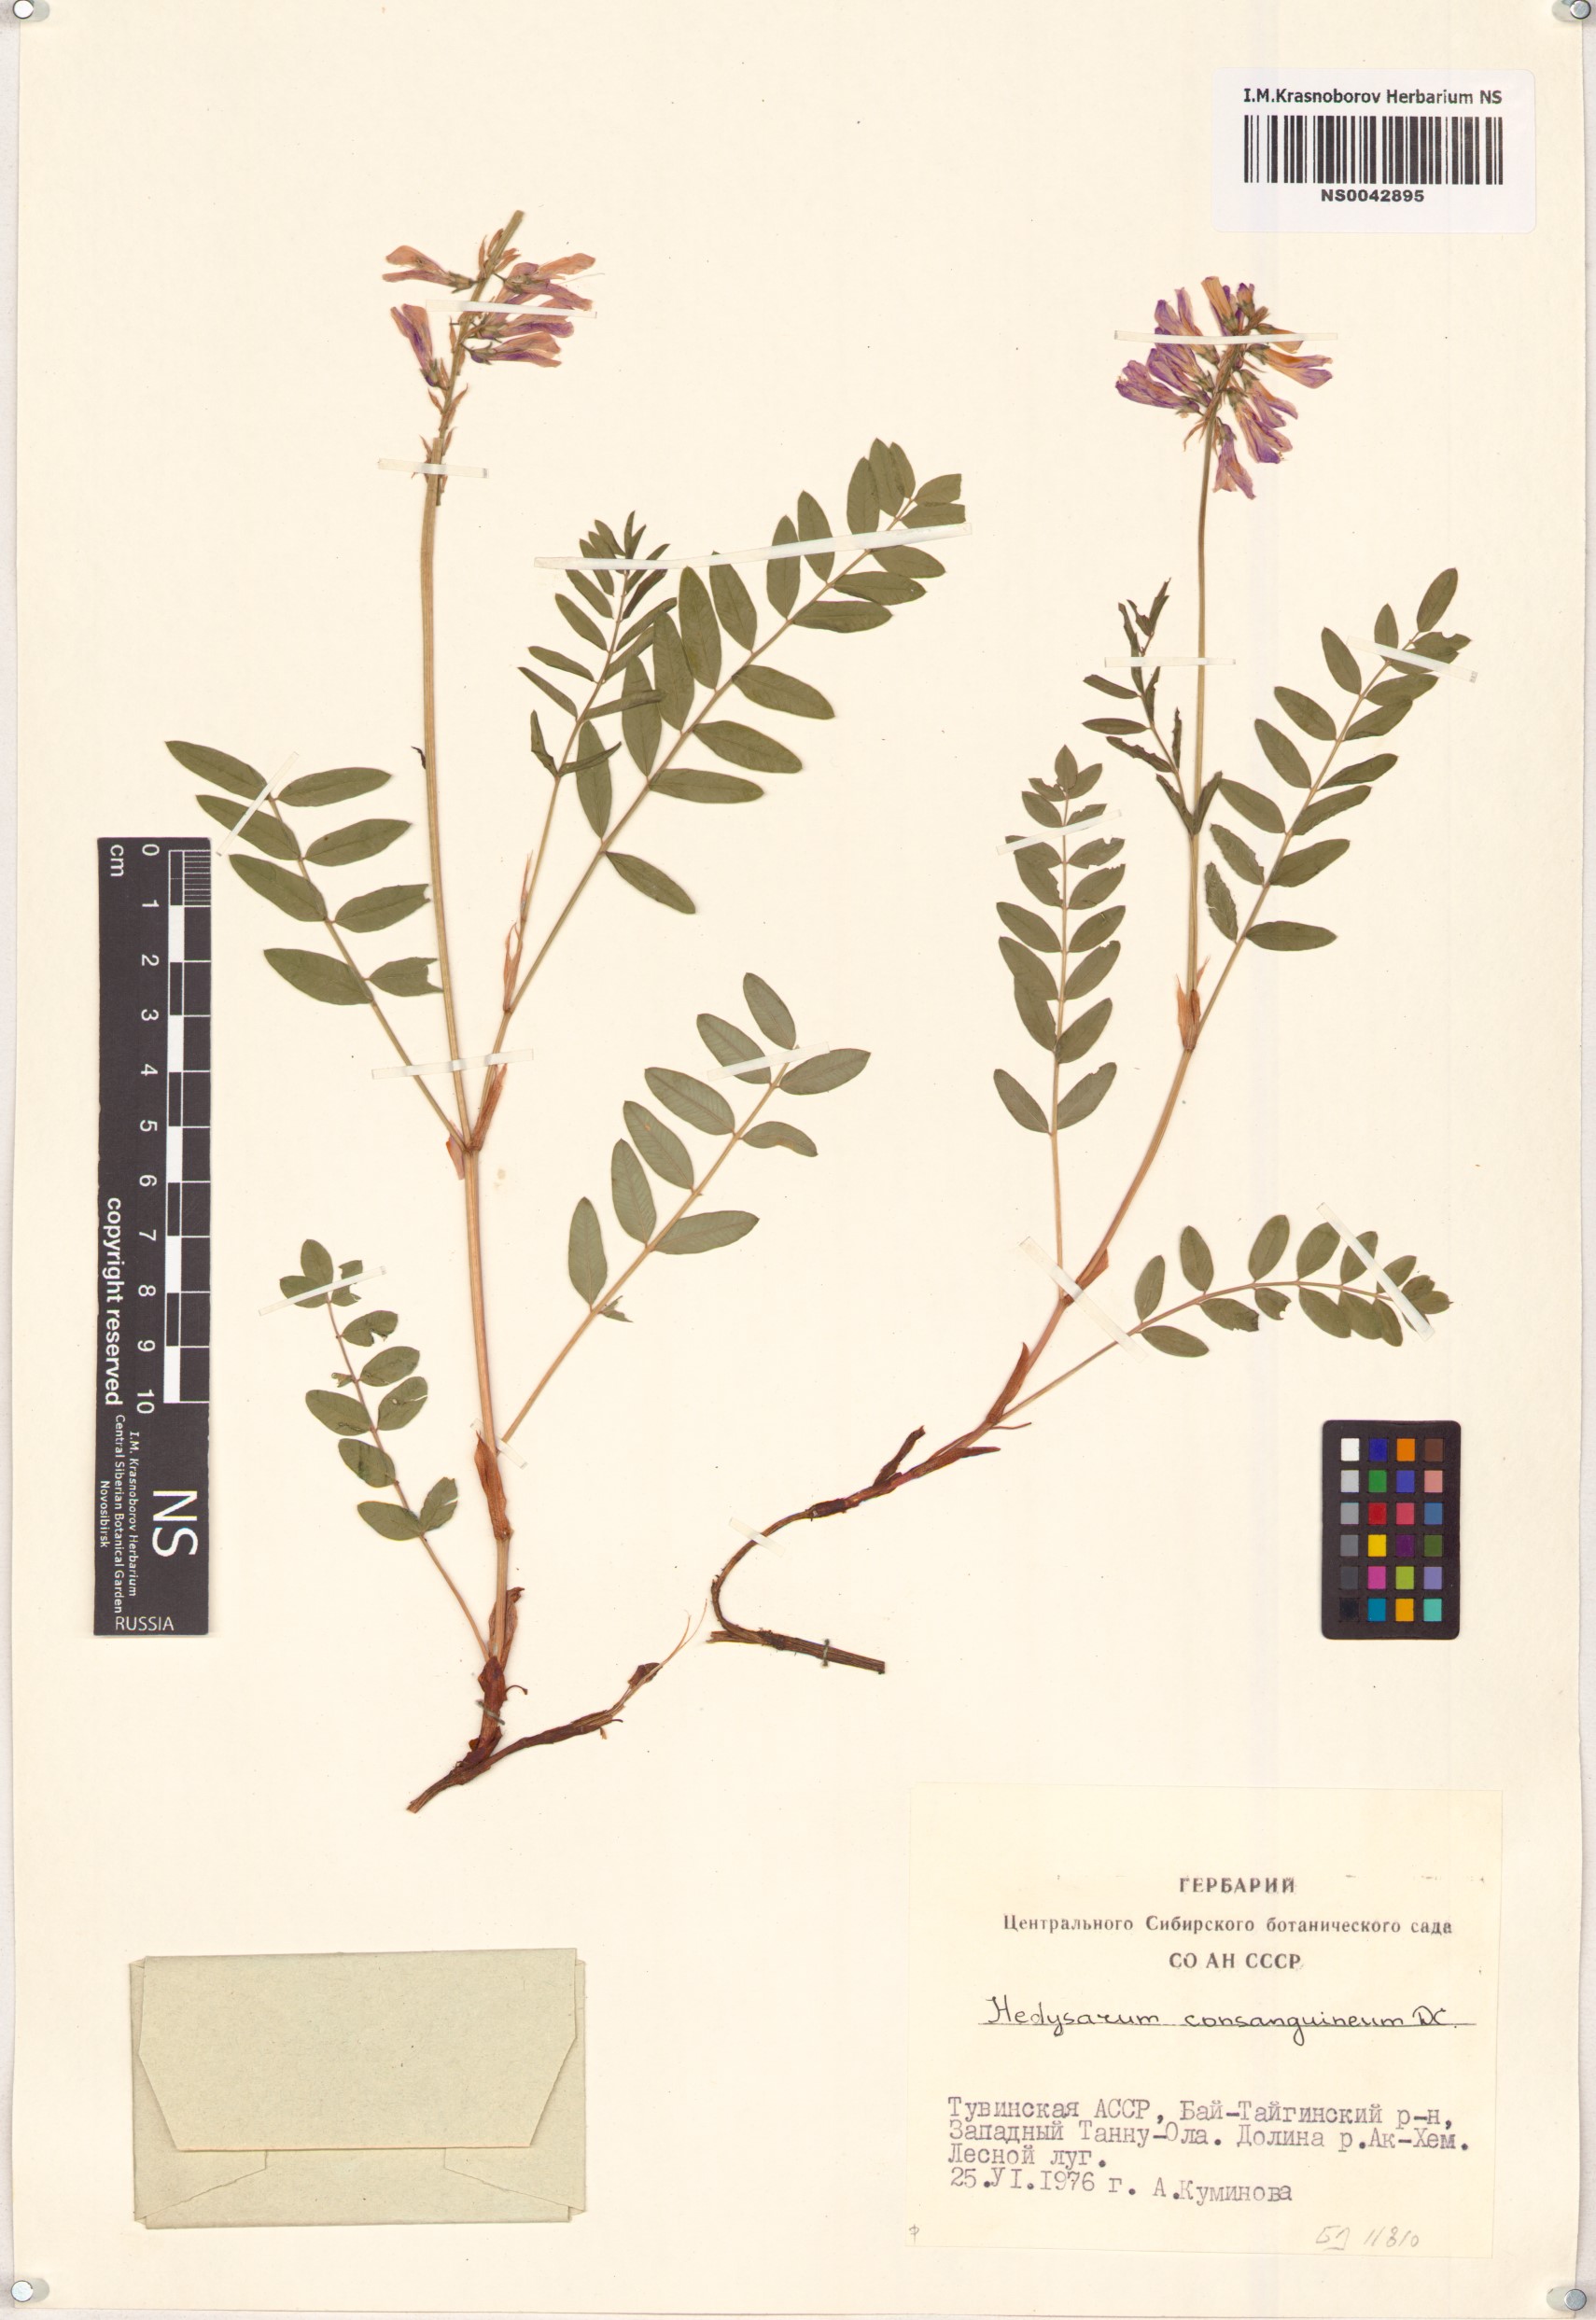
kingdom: Plantae
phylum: Tracheophyta
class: Magnoliopsida
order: Fabales
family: Fabaceae
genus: Hedysarum
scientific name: Hedysarum consanguineum
